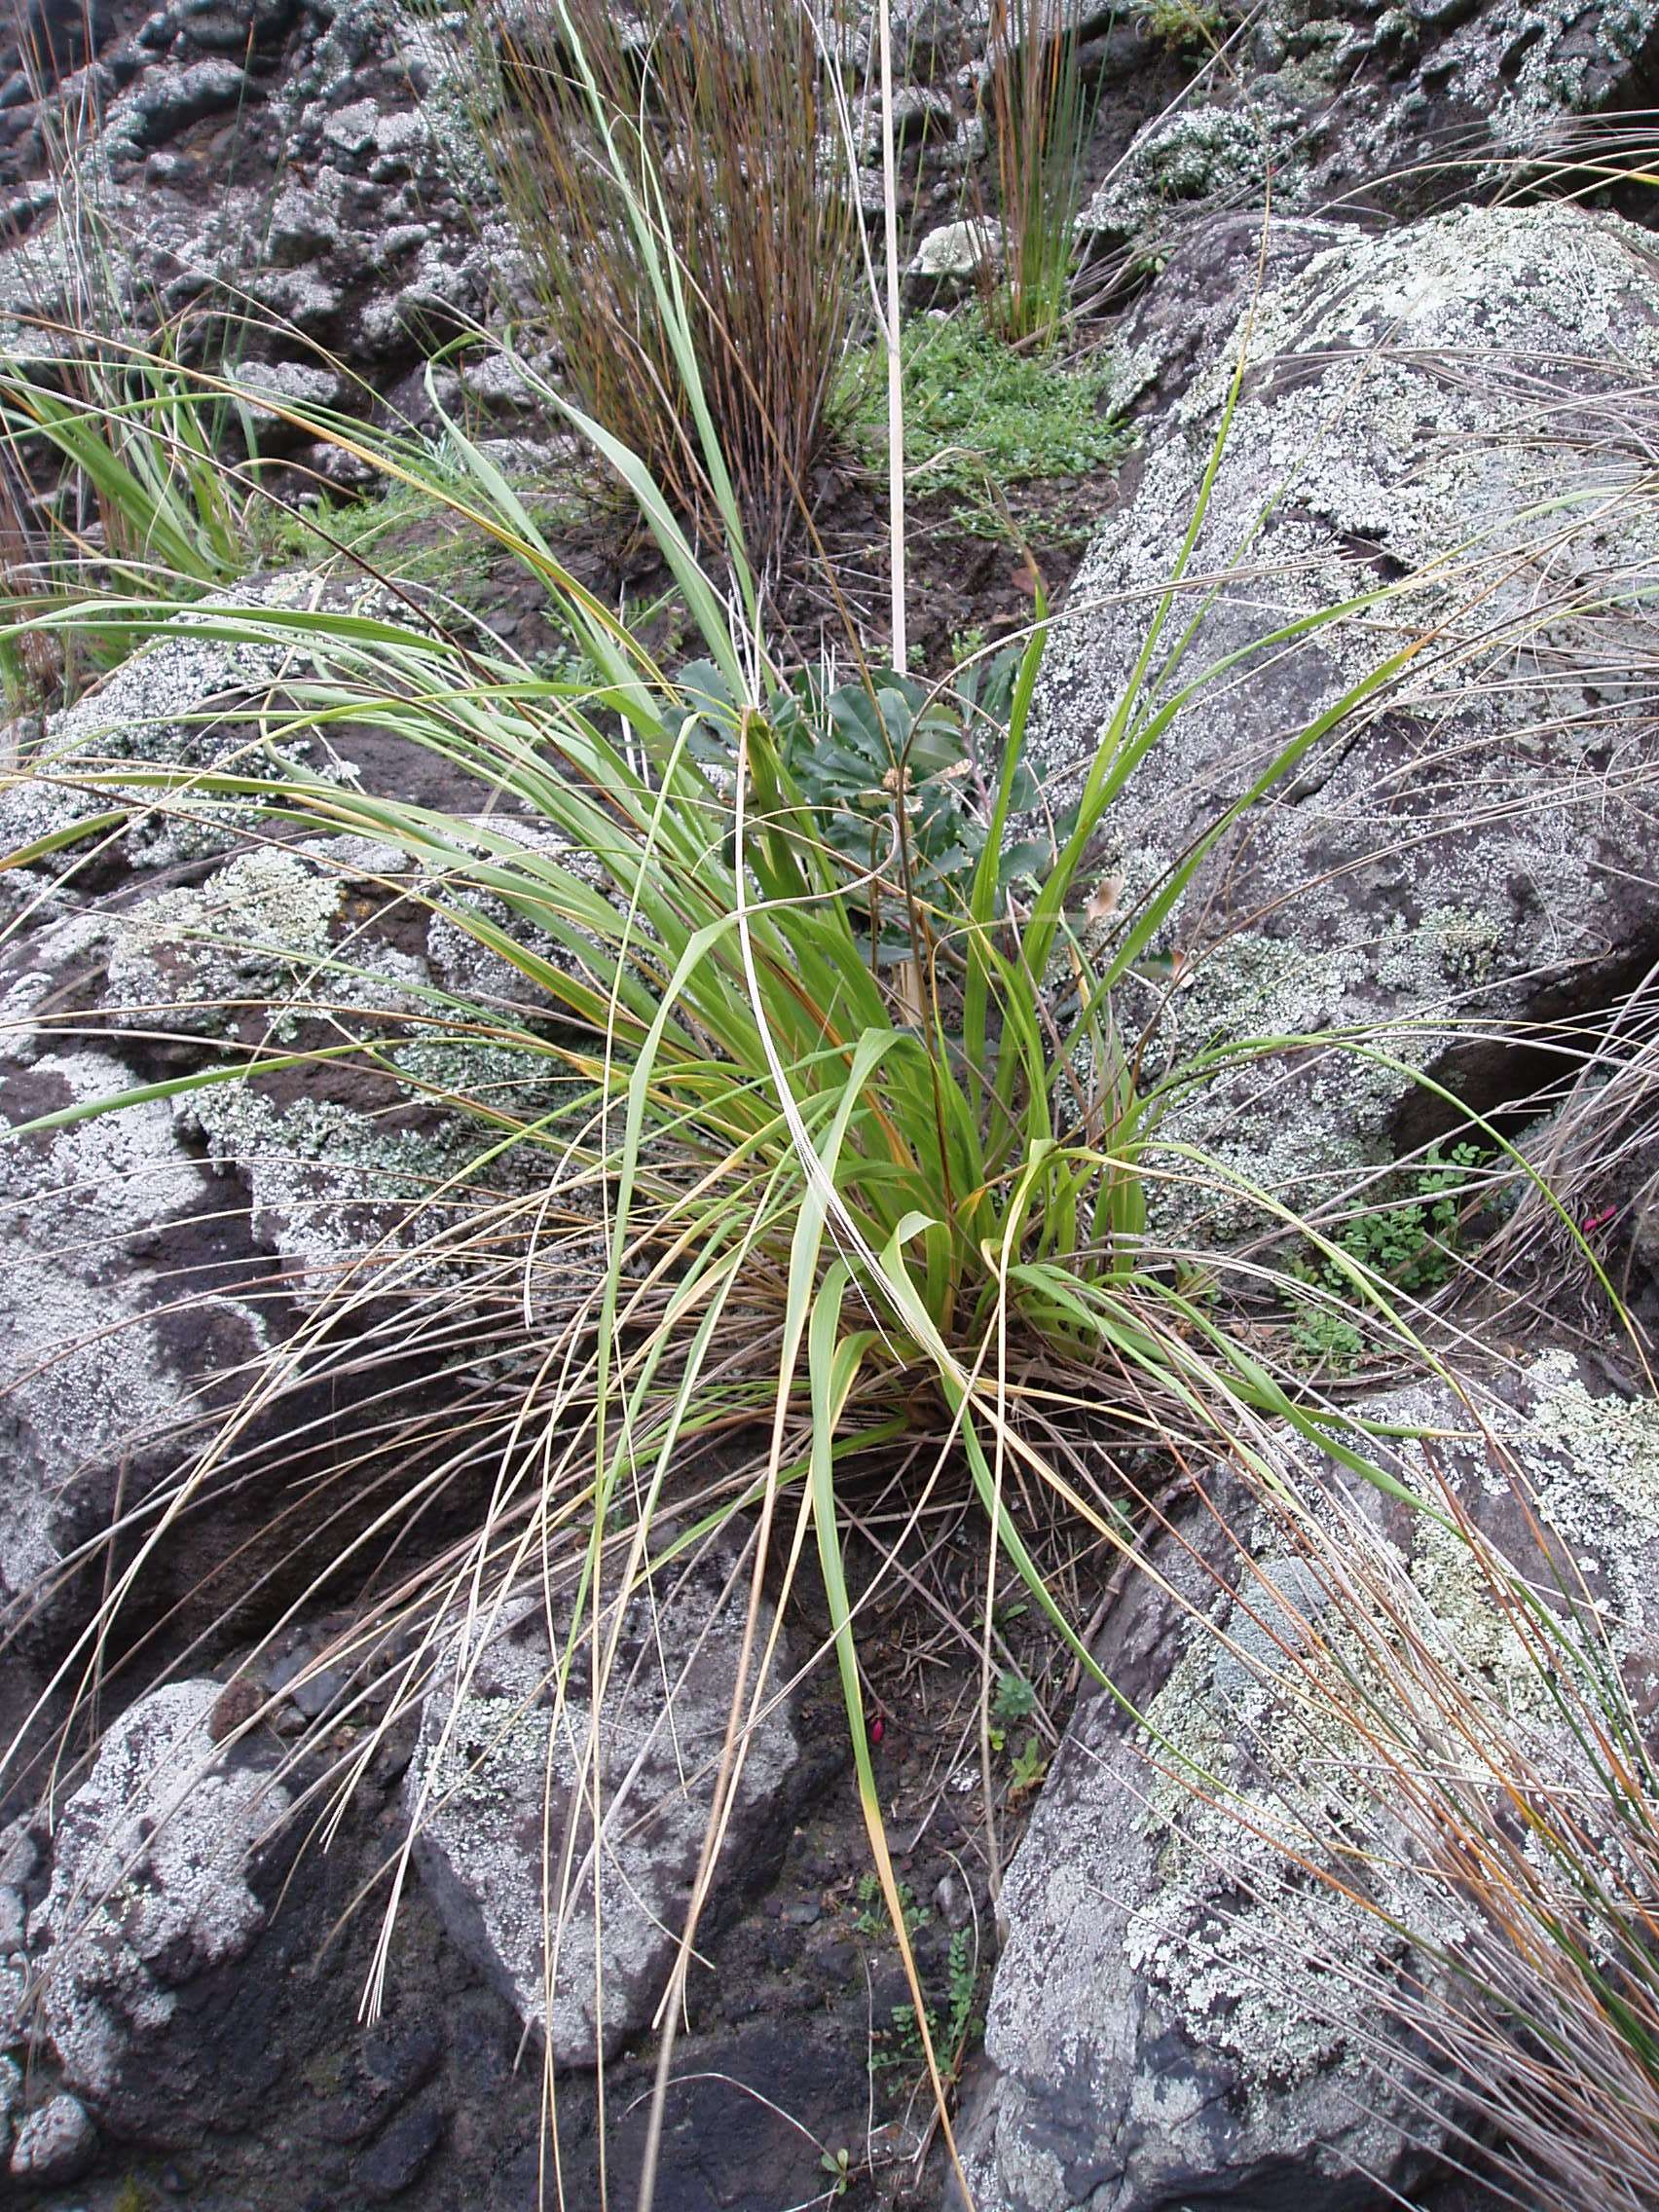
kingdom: Plantae
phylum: Tracheophyta
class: Magnoliopsida
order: Proteales
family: Proteaceae
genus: Banksia
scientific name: Banksia integrifolia
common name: White-honeysuckle
